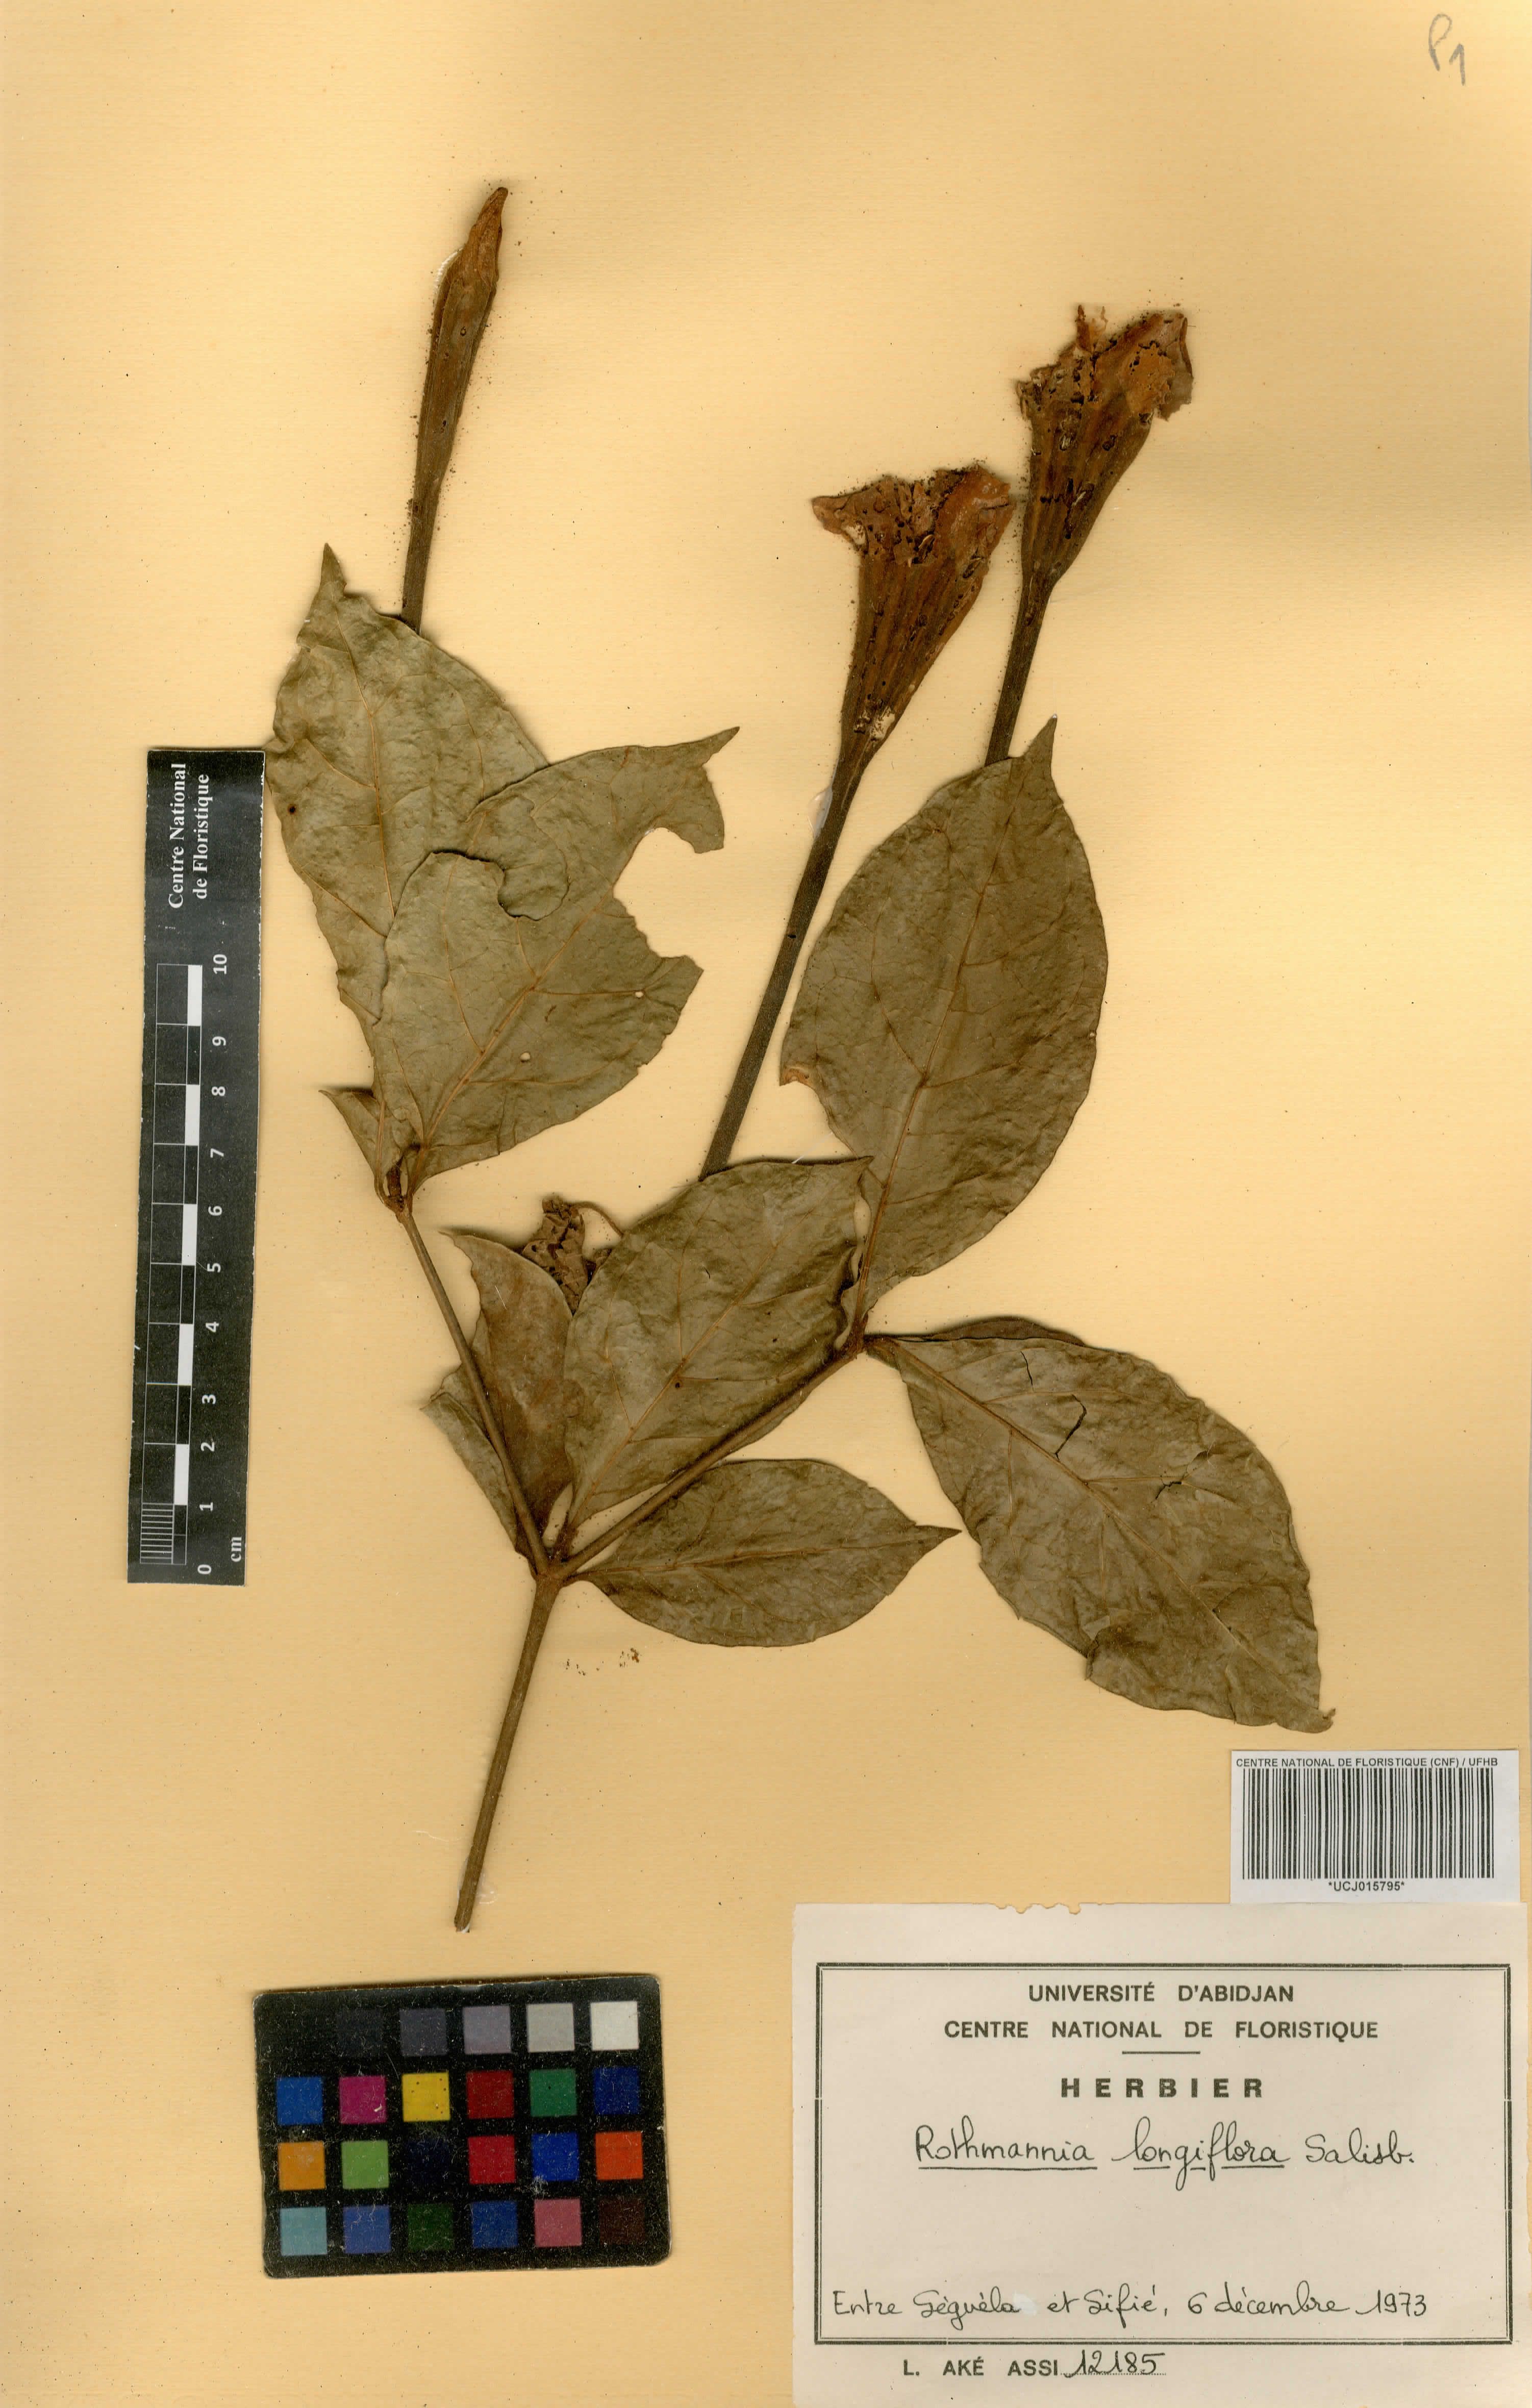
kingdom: Plantae
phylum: Tracheophyta
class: Magnoliopsida
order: Gentianales
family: Rubiaceae
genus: Rothmannia
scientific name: Rothmannia longiflora
